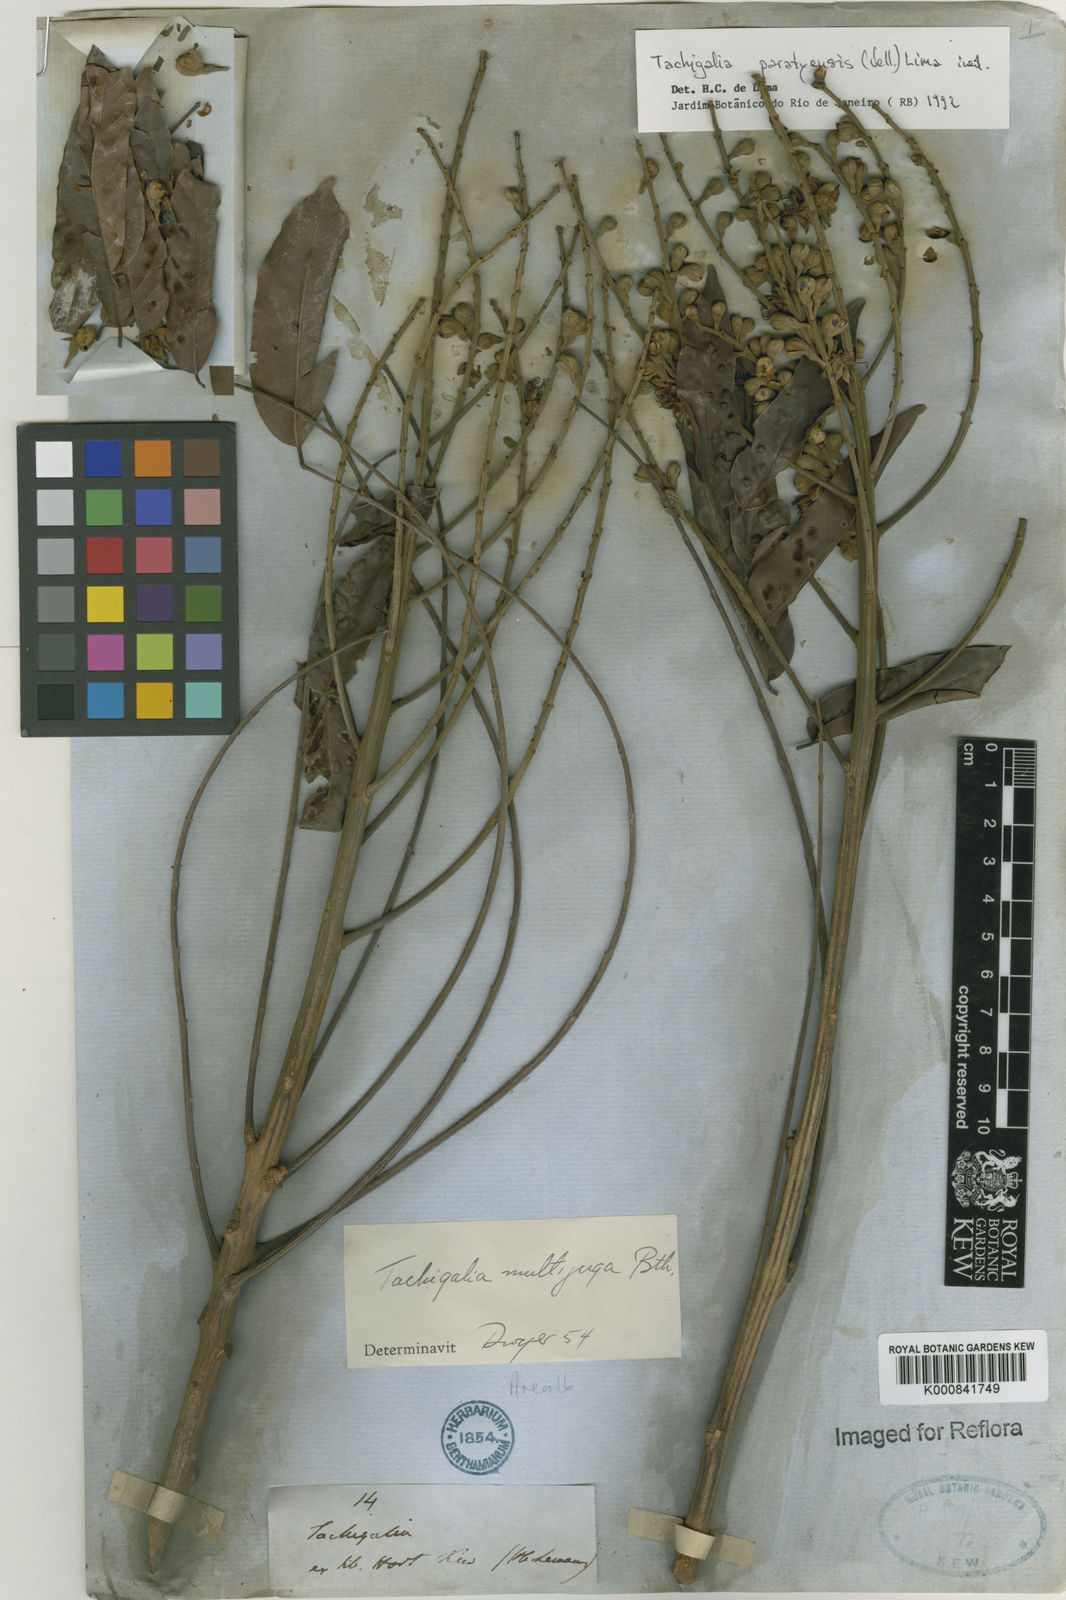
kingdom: Plantae
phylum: Tracheophyta
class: Magnoliopsida
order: Fabales
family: Fabaceae
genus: Tachigali
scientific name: Tachigali paratyensis
